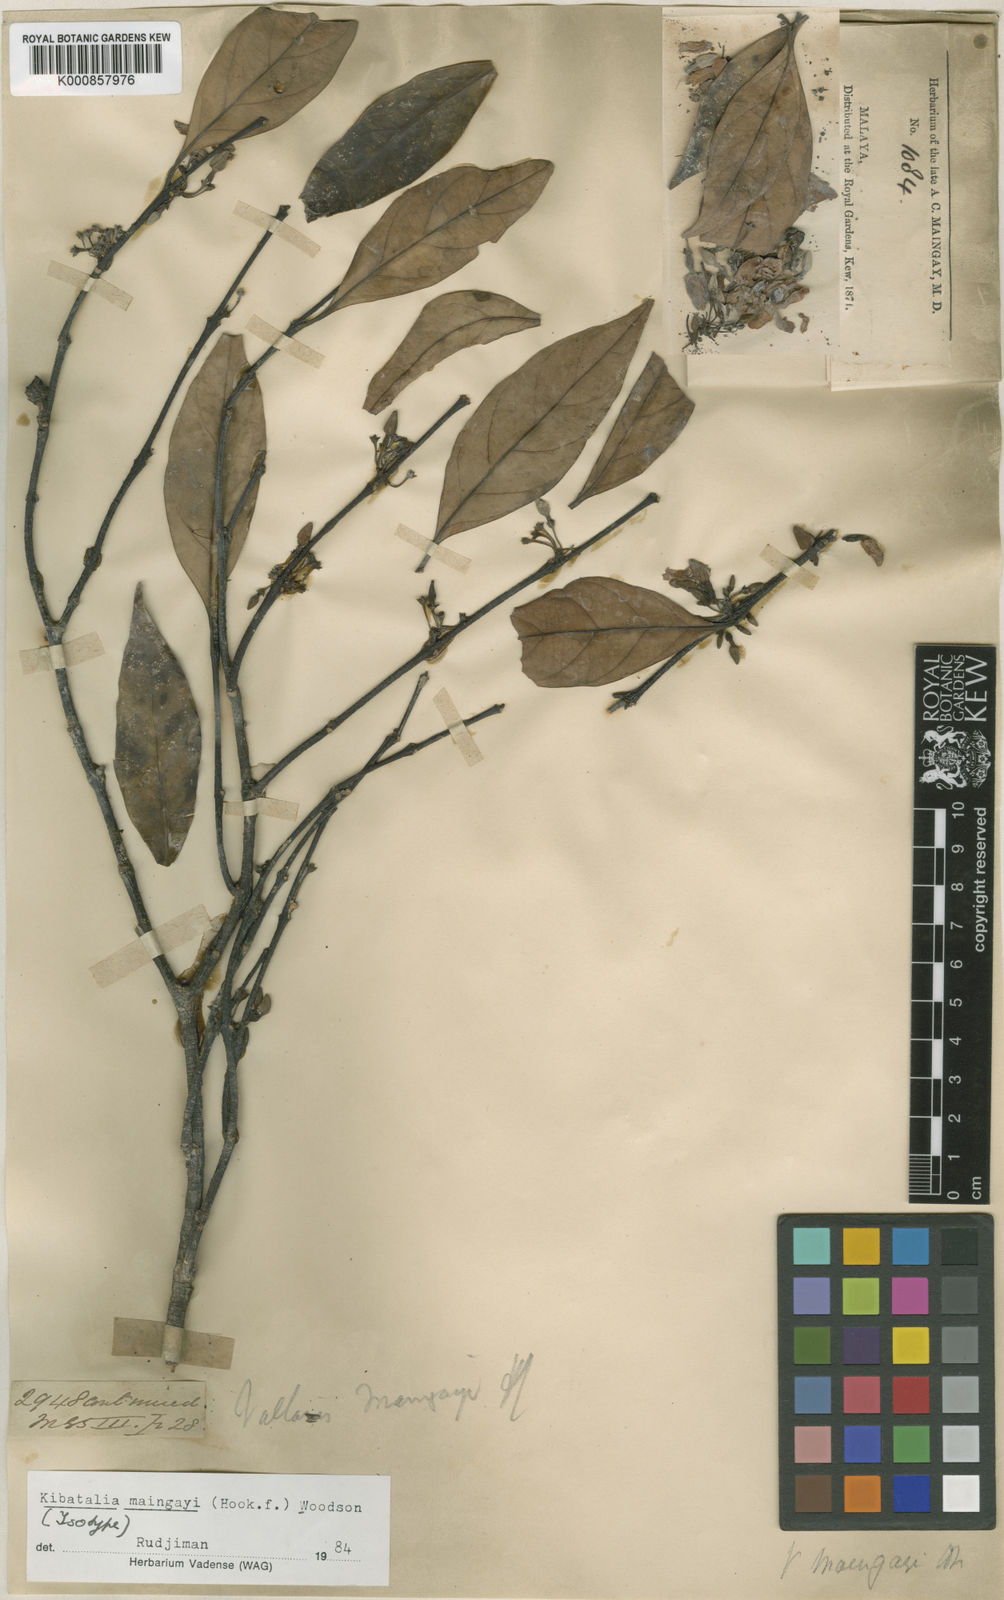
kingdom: Plantae
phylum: Tracheophyta
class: Magnoliopsida
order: Gentianales
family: Apocynaceae
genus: Kibatalia
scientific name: Kibatalia maingayi
